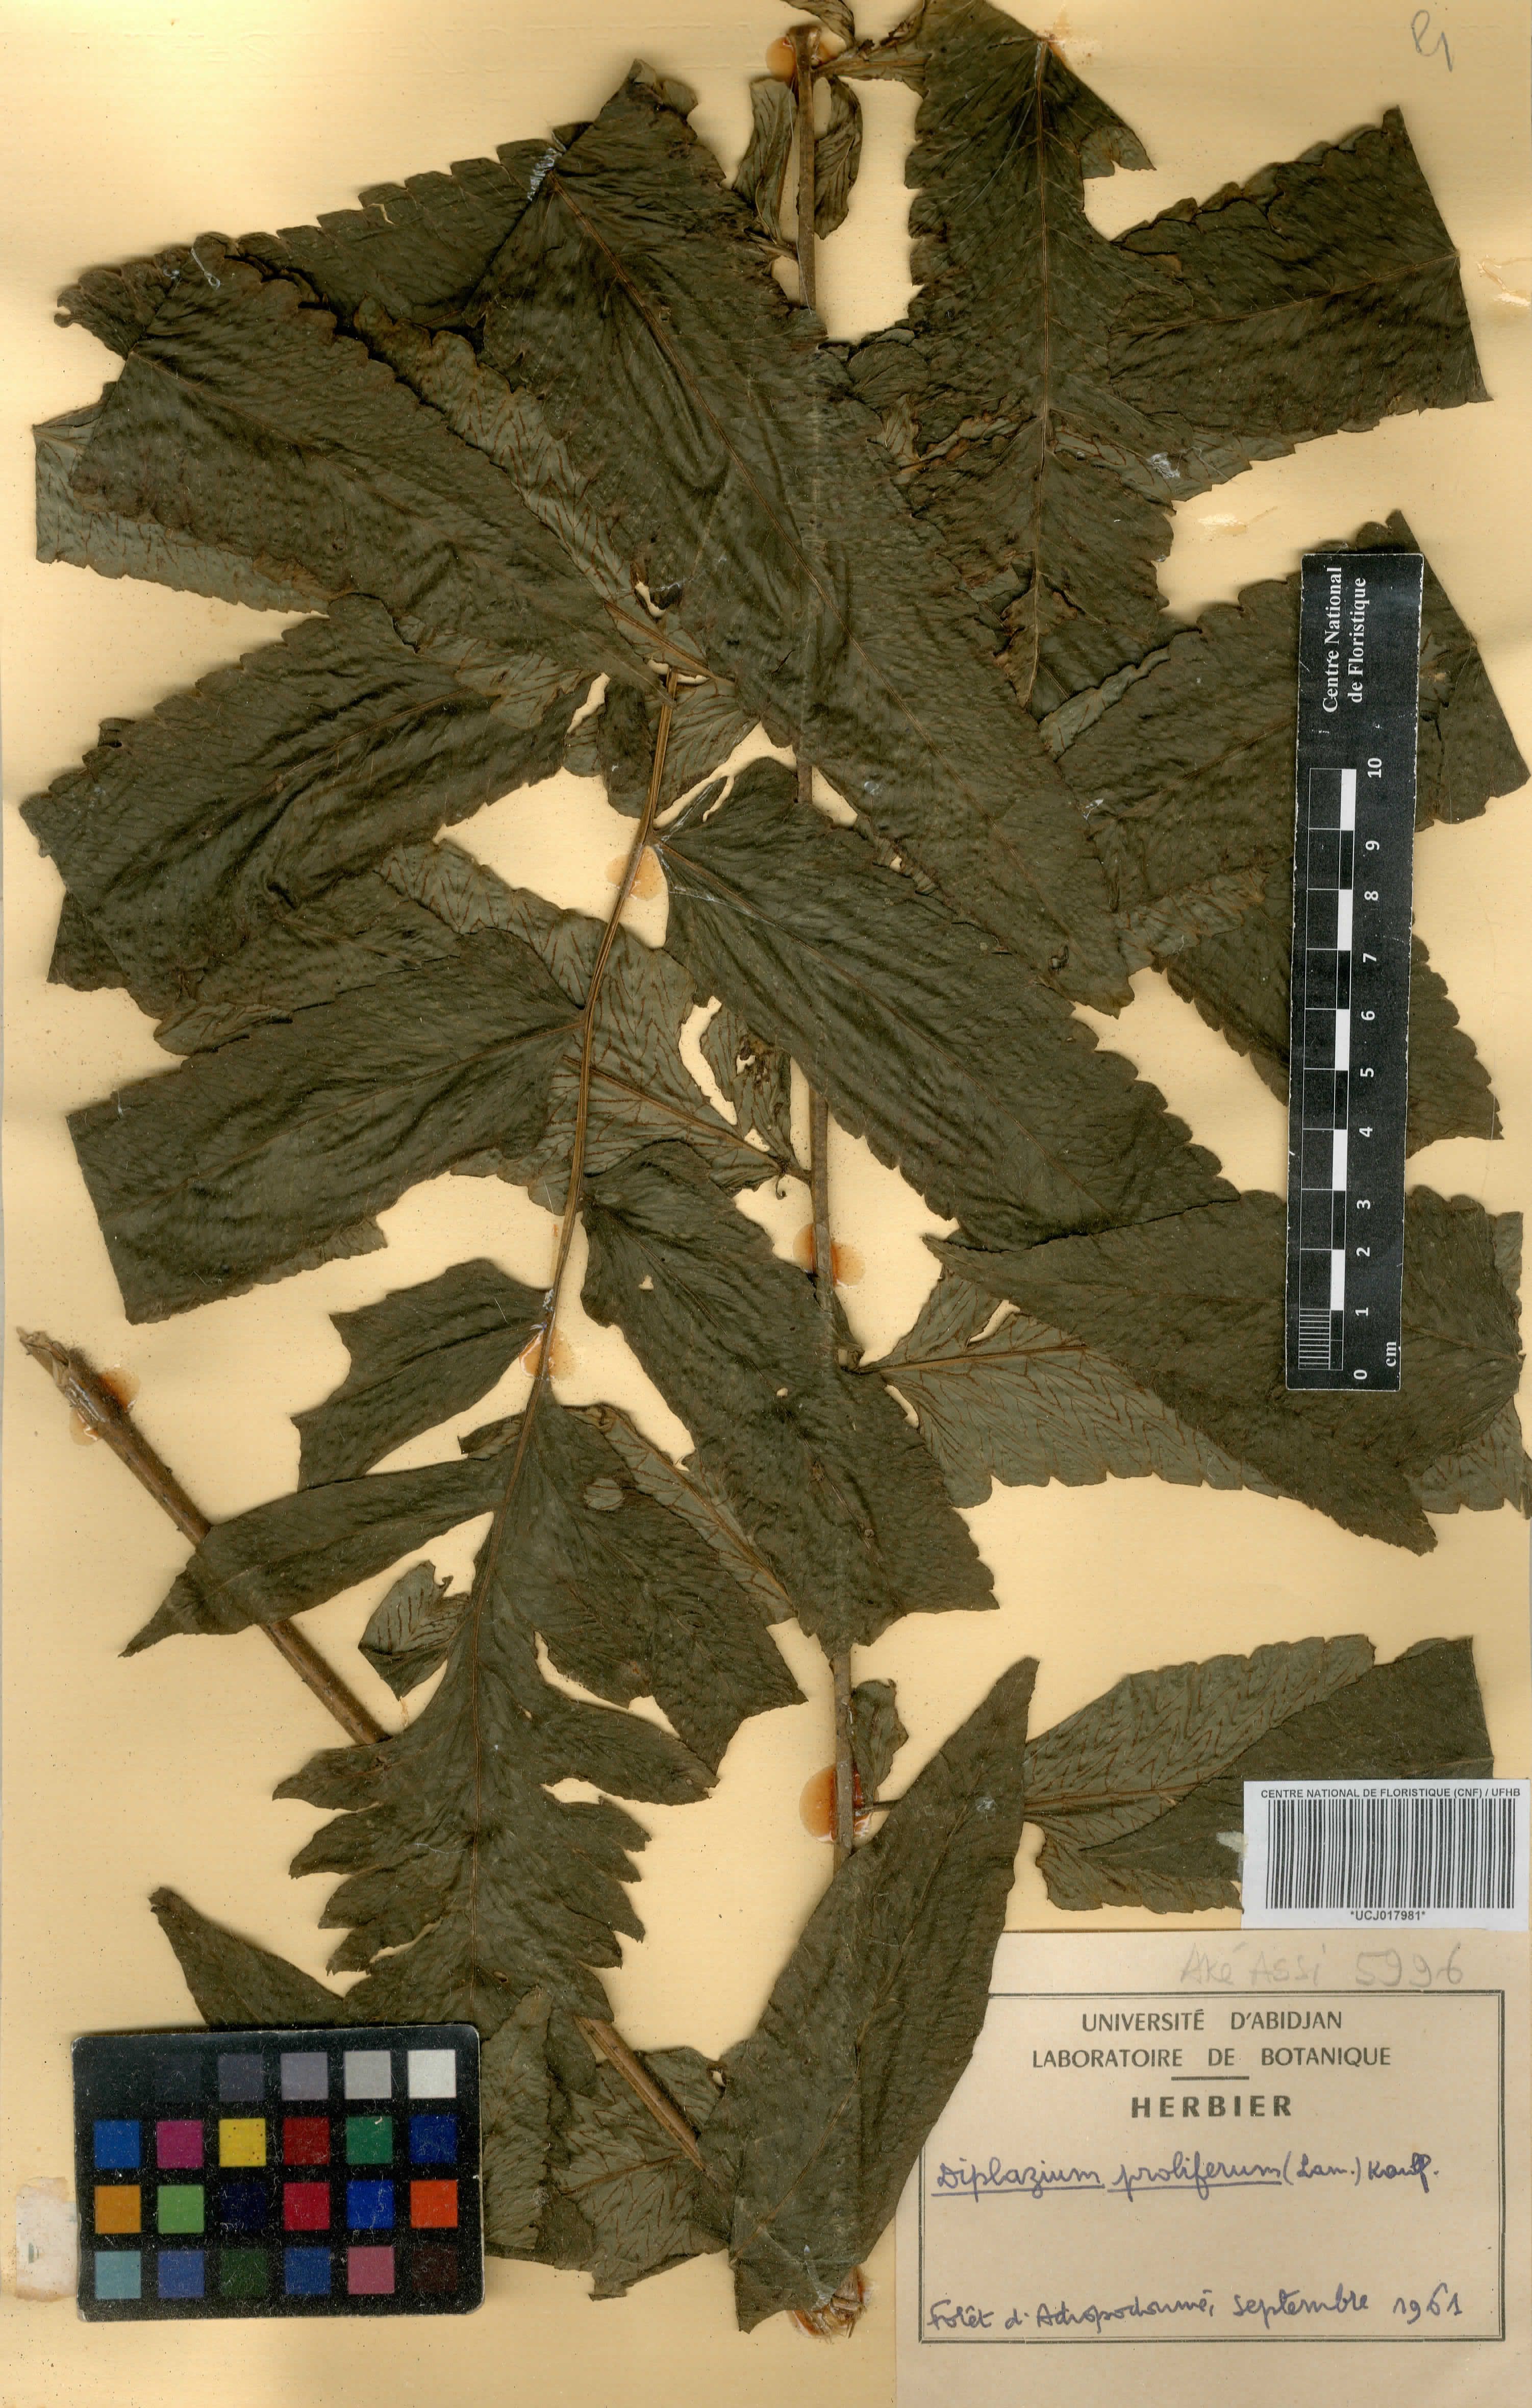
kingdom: Plantae
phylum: Tracheophyta
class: Polypodiopsida
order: Polypodiales
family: Athyriaceae
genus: Diplazium
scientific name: Diplazium proliferum
